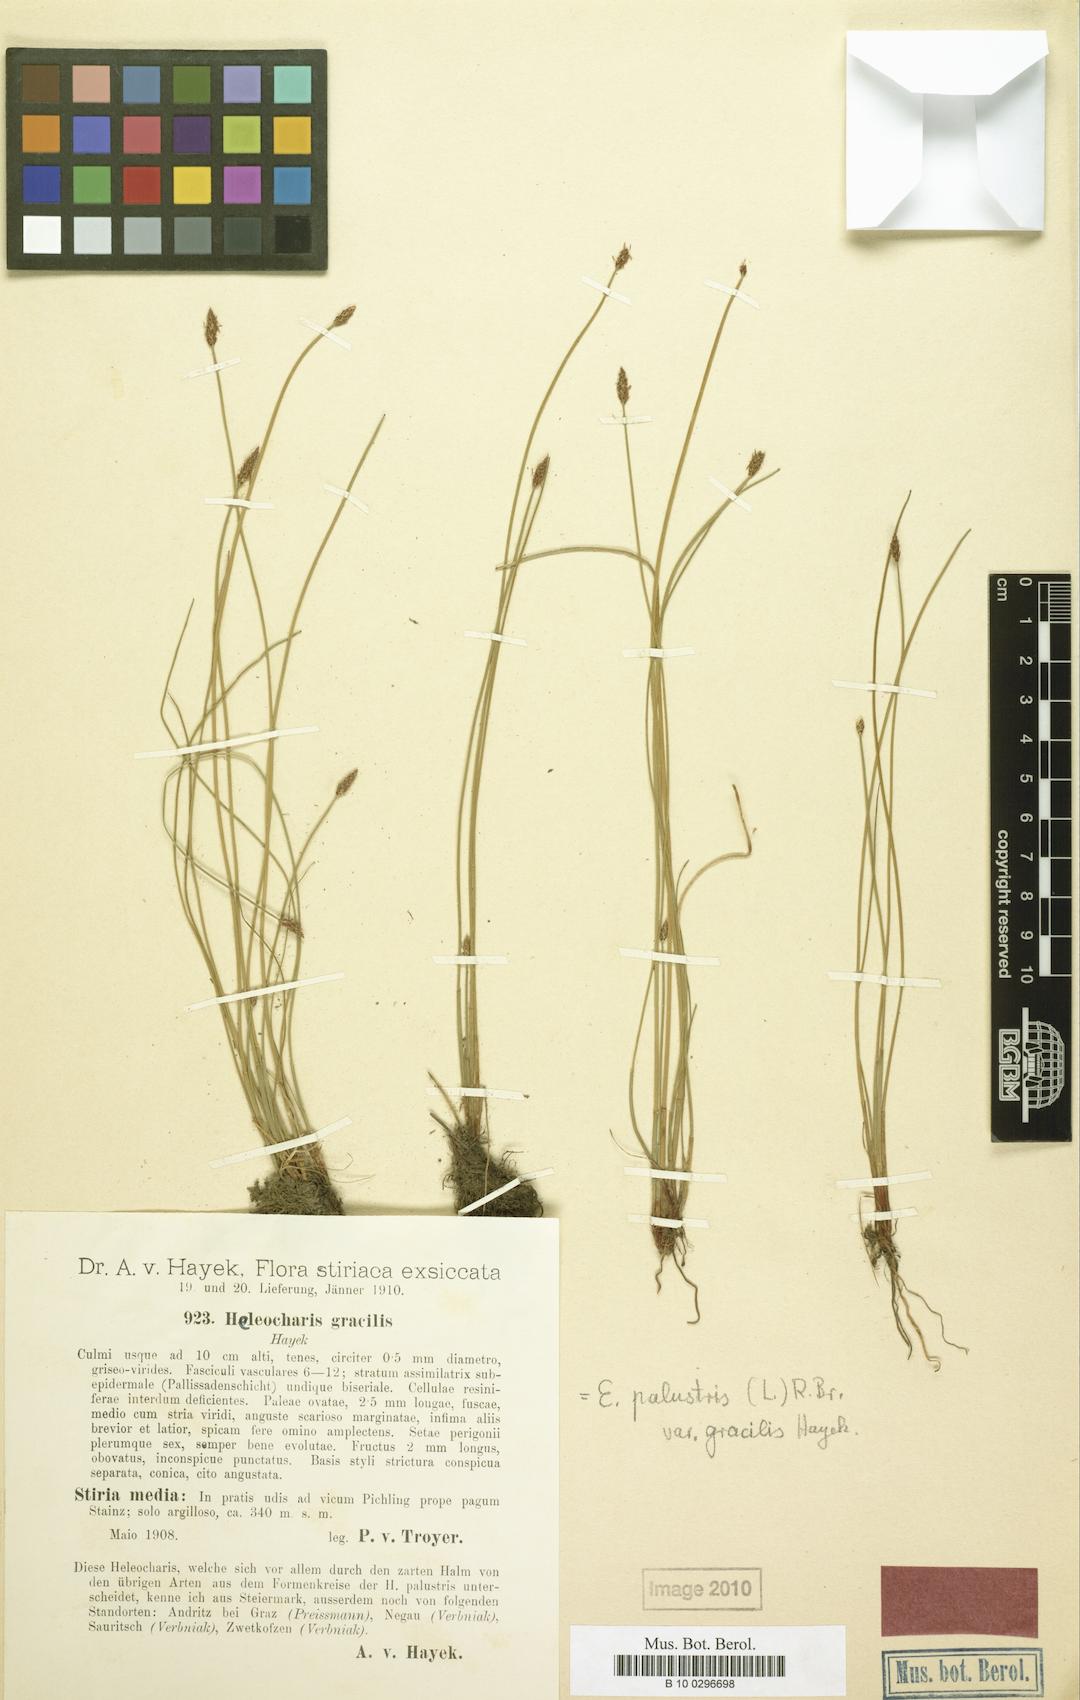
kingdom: Plantae
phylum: Tracheophyta
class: Liliopsida
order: Poales
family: Cyperaceae
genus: Eleocharis
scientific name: Eleocharis palustris
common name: Common spike-rush
